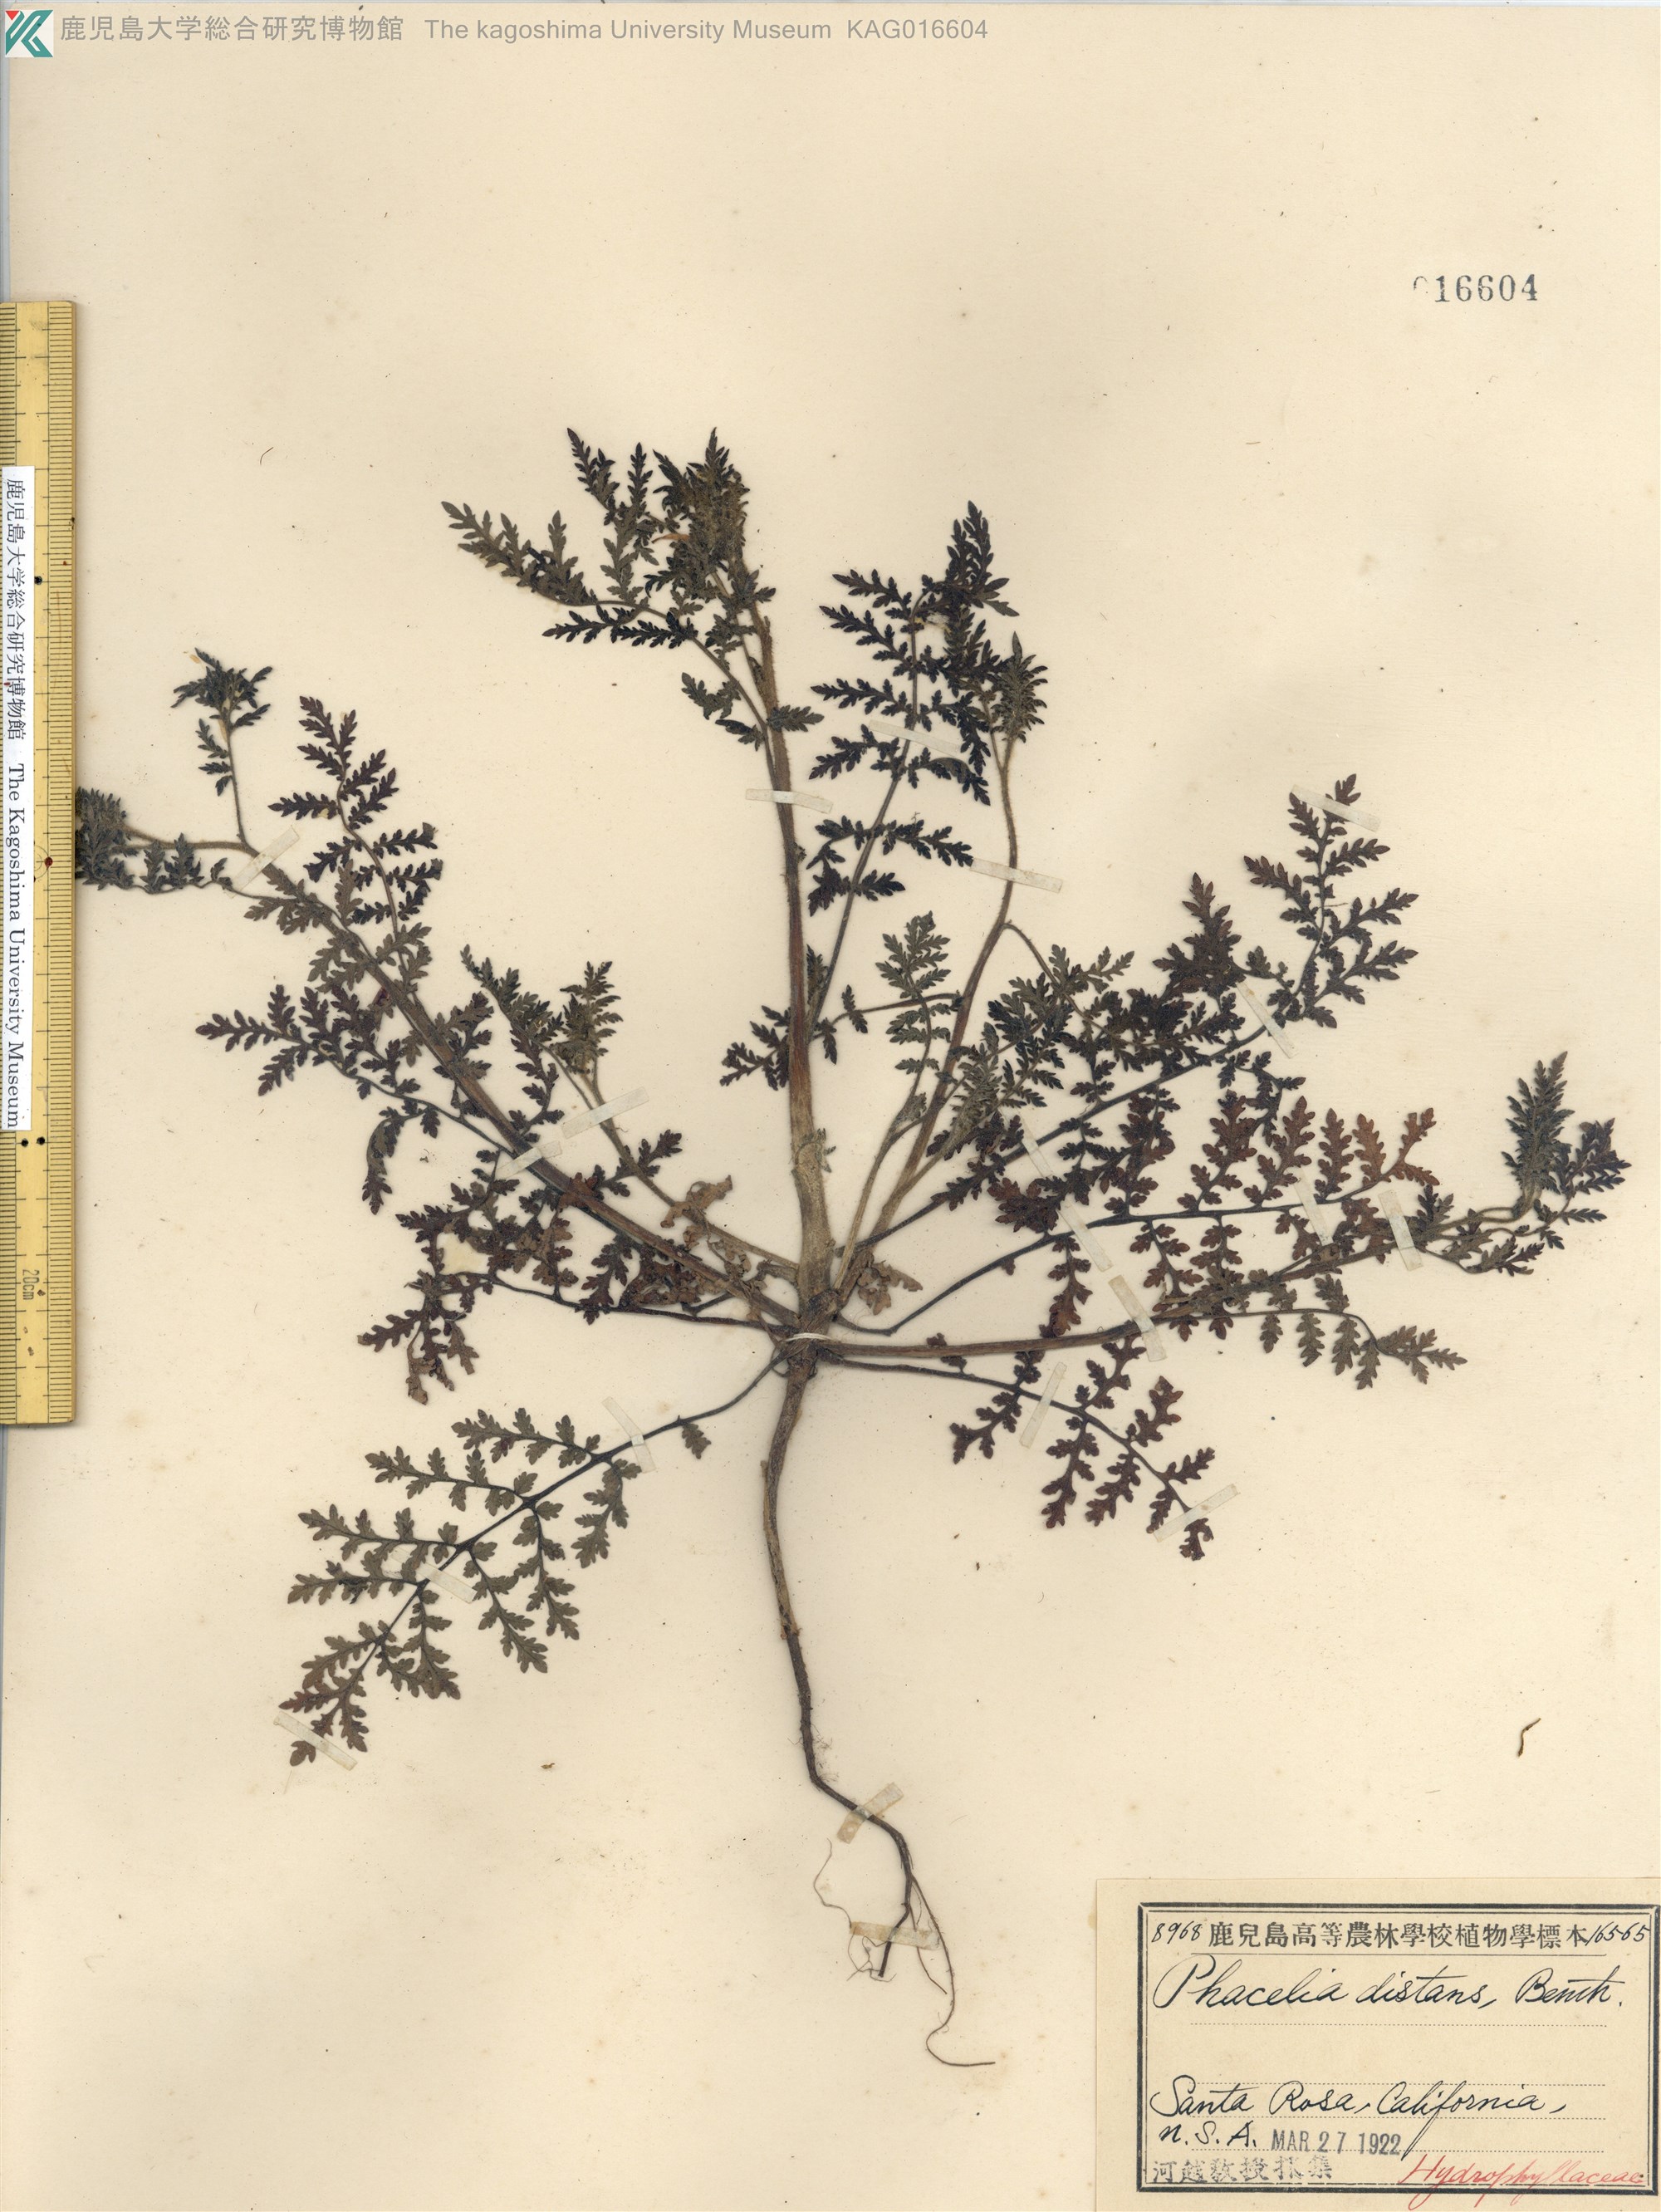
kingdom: Plantae
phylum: Tracheophyta
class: Magnoliopsida
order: Boraginales
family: Hydrophyllaceae
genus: Phacelia
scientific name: Phacelia distans
